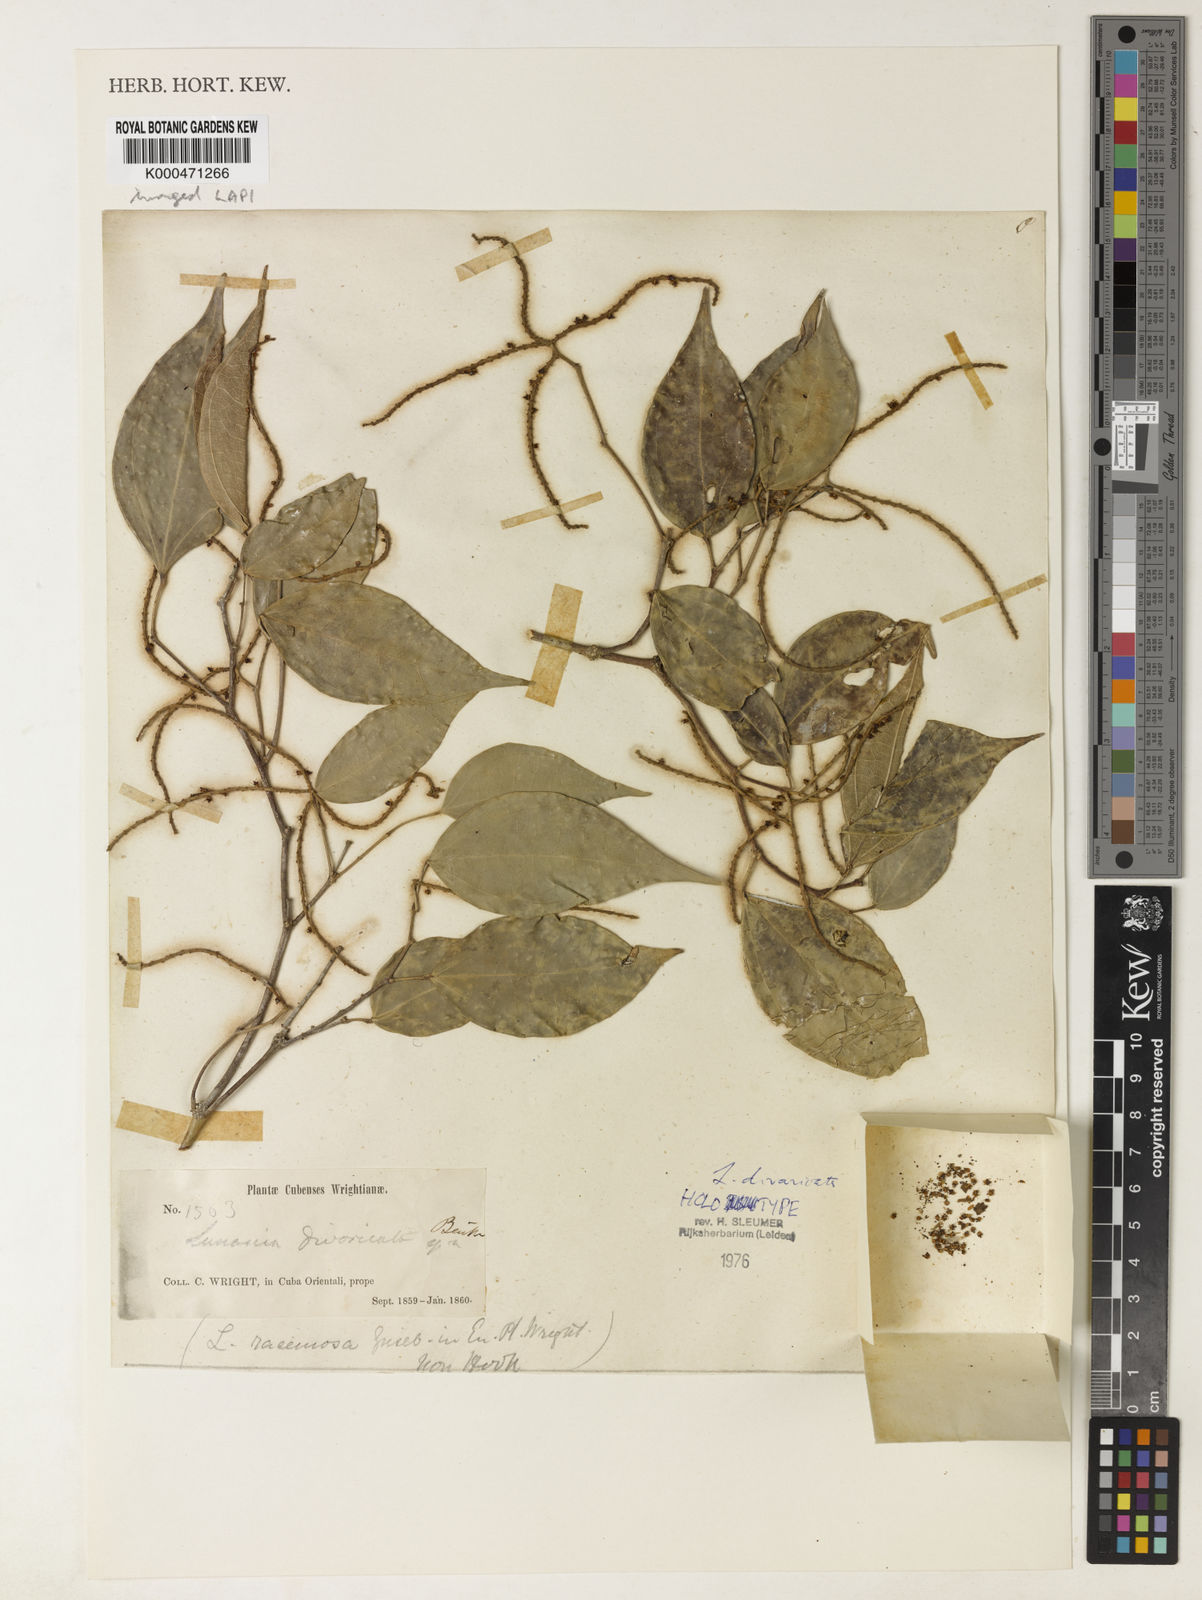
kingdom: Plantae
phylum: Tracheophyta
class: Magnoliopsida
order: Malpighiales
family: Salicaceae
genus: Lunania
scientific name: Lunania divaricata
